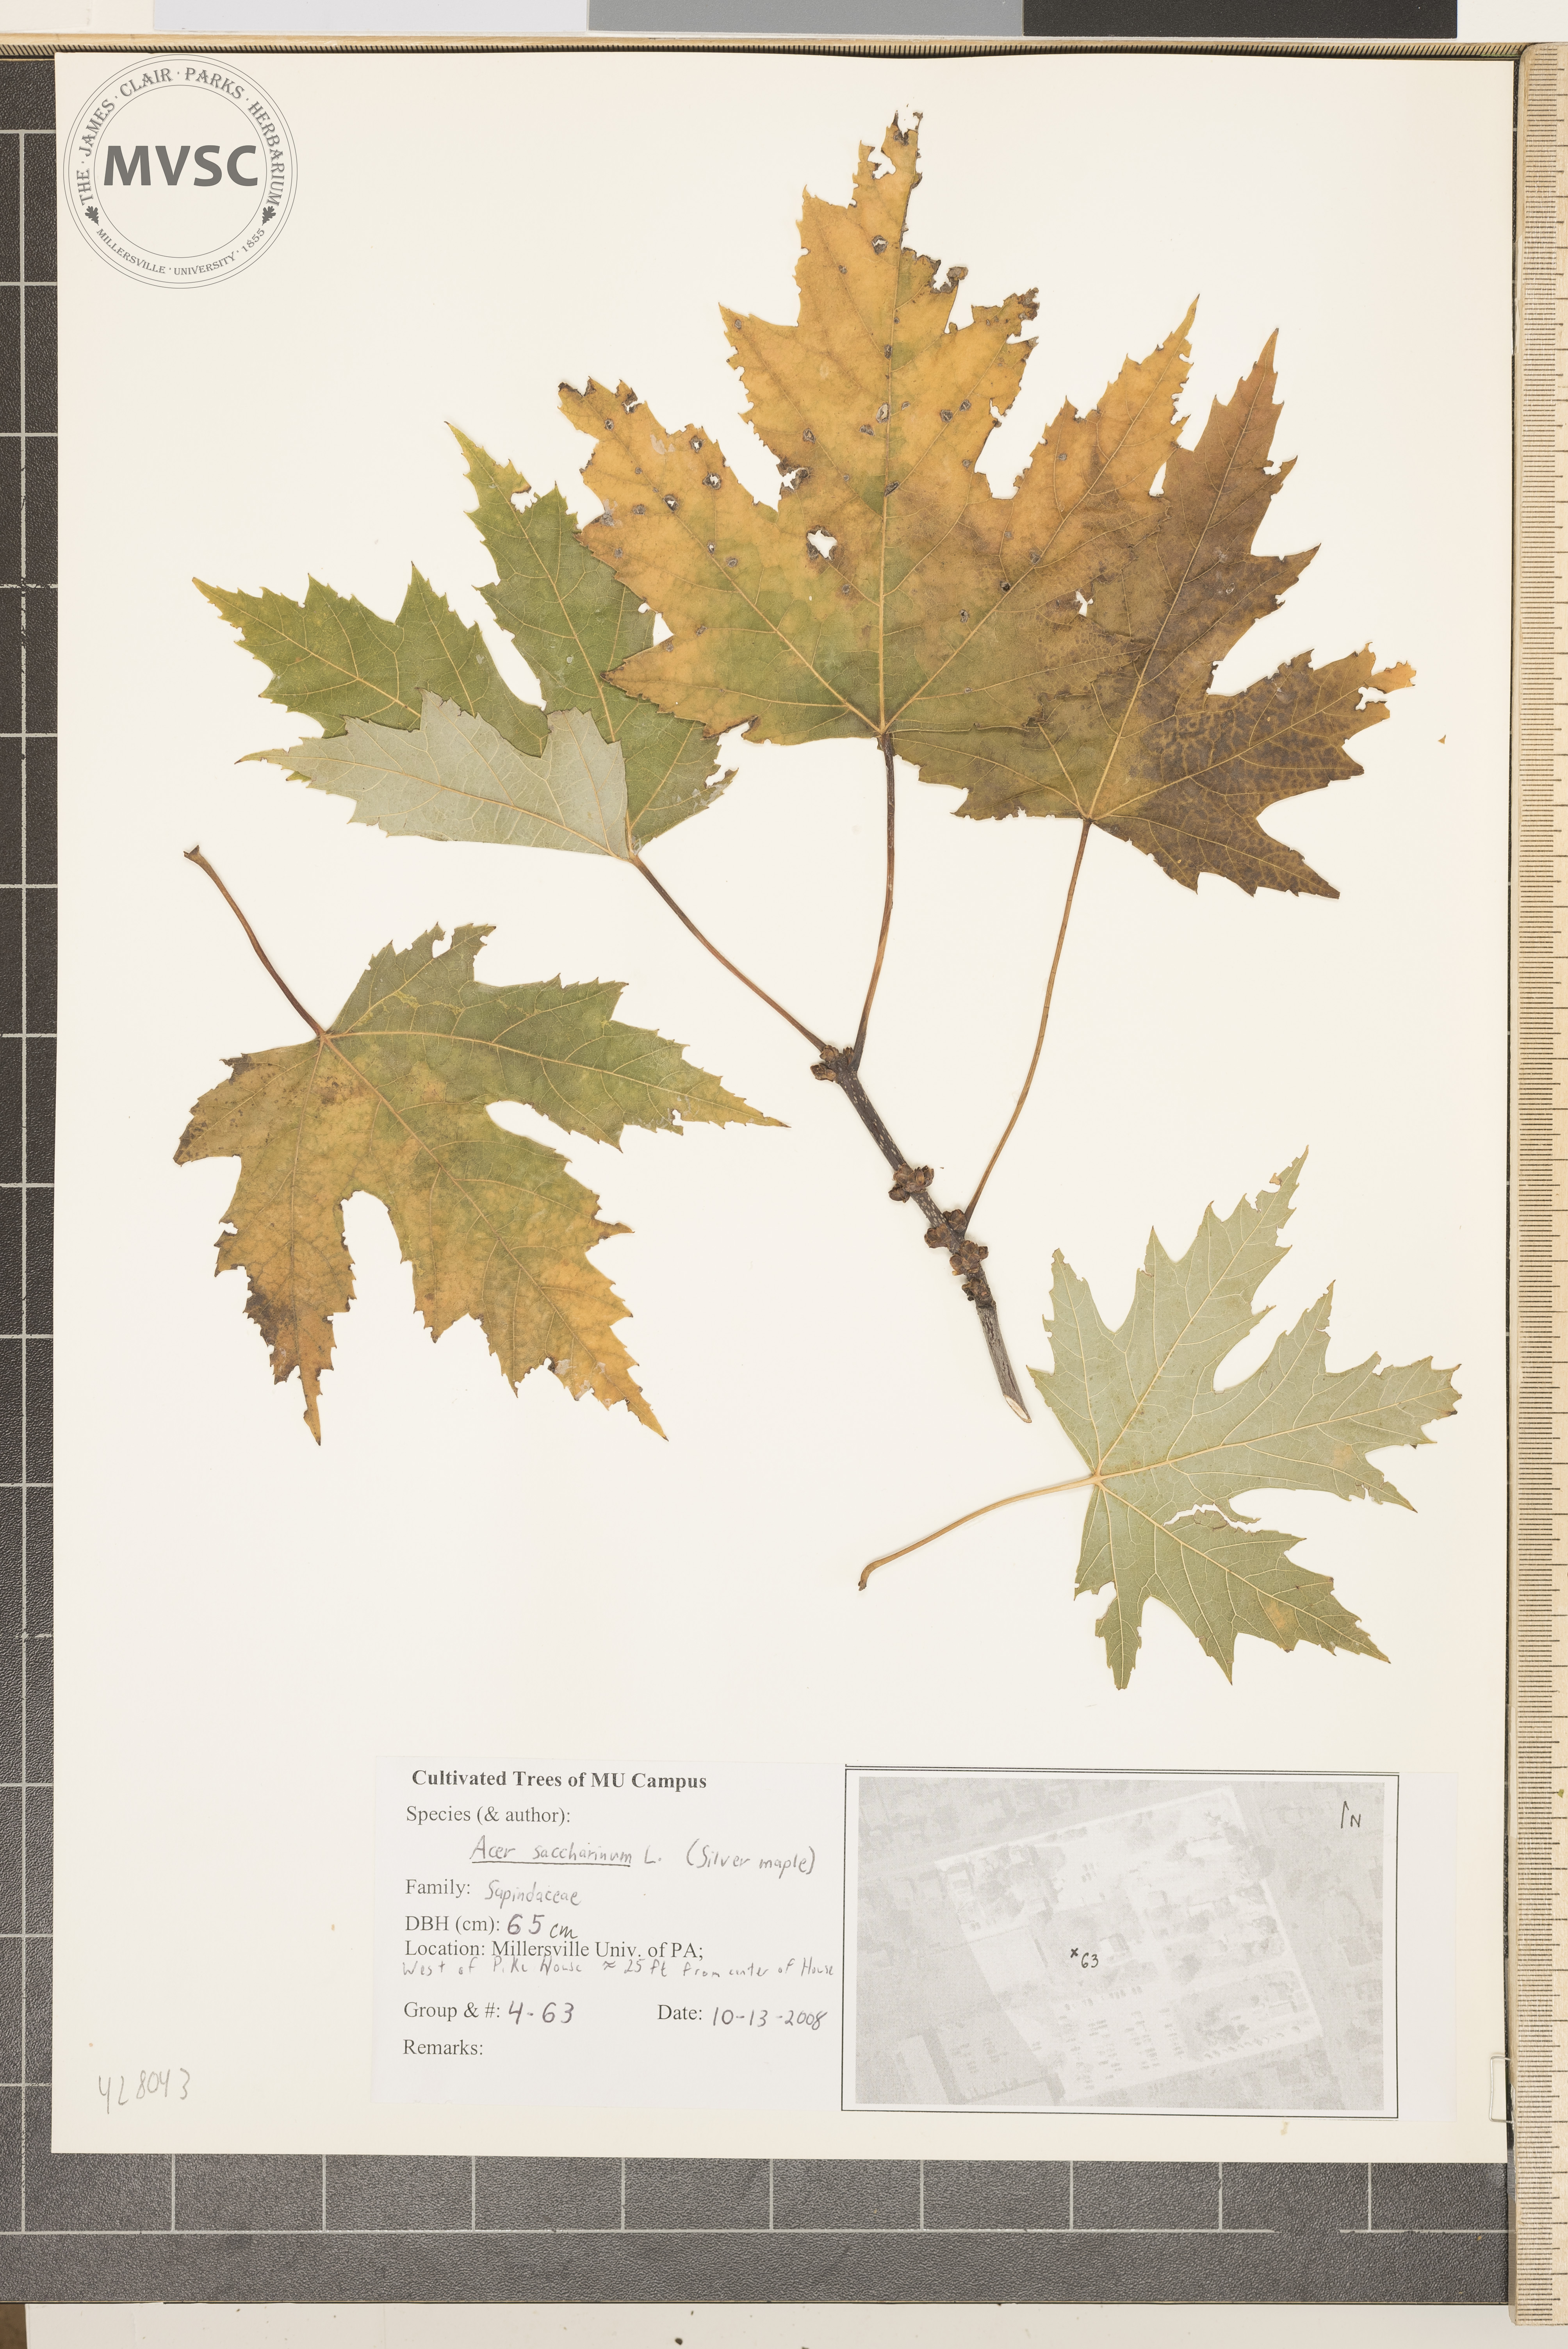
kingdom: Plantae
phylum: Tracheophyta
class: Magnoliopsida
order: Sapindales
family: Sapindaceae
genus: Acer
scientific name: Acer saccharinum
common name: Silver maple
